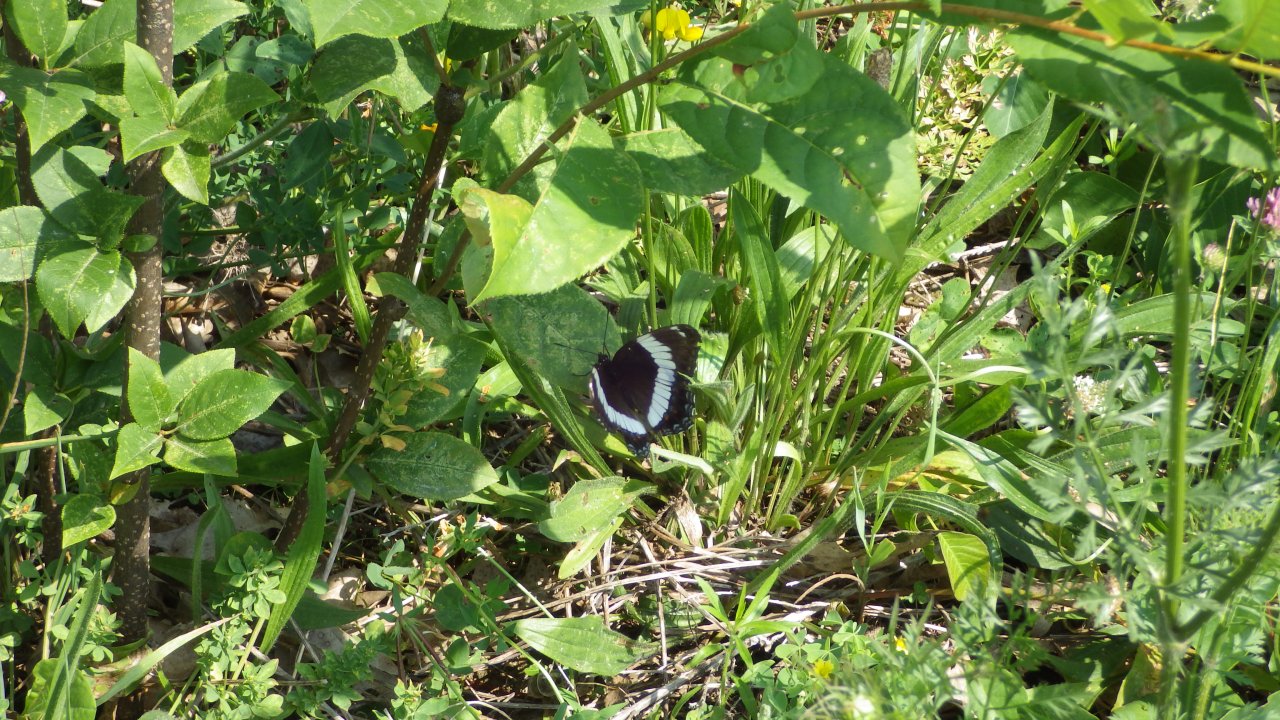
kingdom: Animalia
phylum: Arthropoda
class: Insecta
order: Lepidoptera
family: Nymphalidae
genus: Limenitis
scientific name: Limenitis arthemis
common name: Red-spotted Admiral
